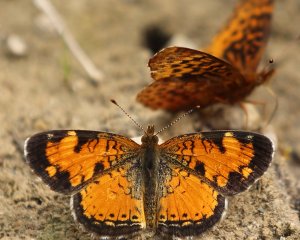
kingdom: Animalia
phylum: Arthropoda
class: Insecta
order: Lepidoptera
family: Nymphalidae
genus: Phyciodes
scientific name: Phyciodes tharos
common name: Northern Crescent
